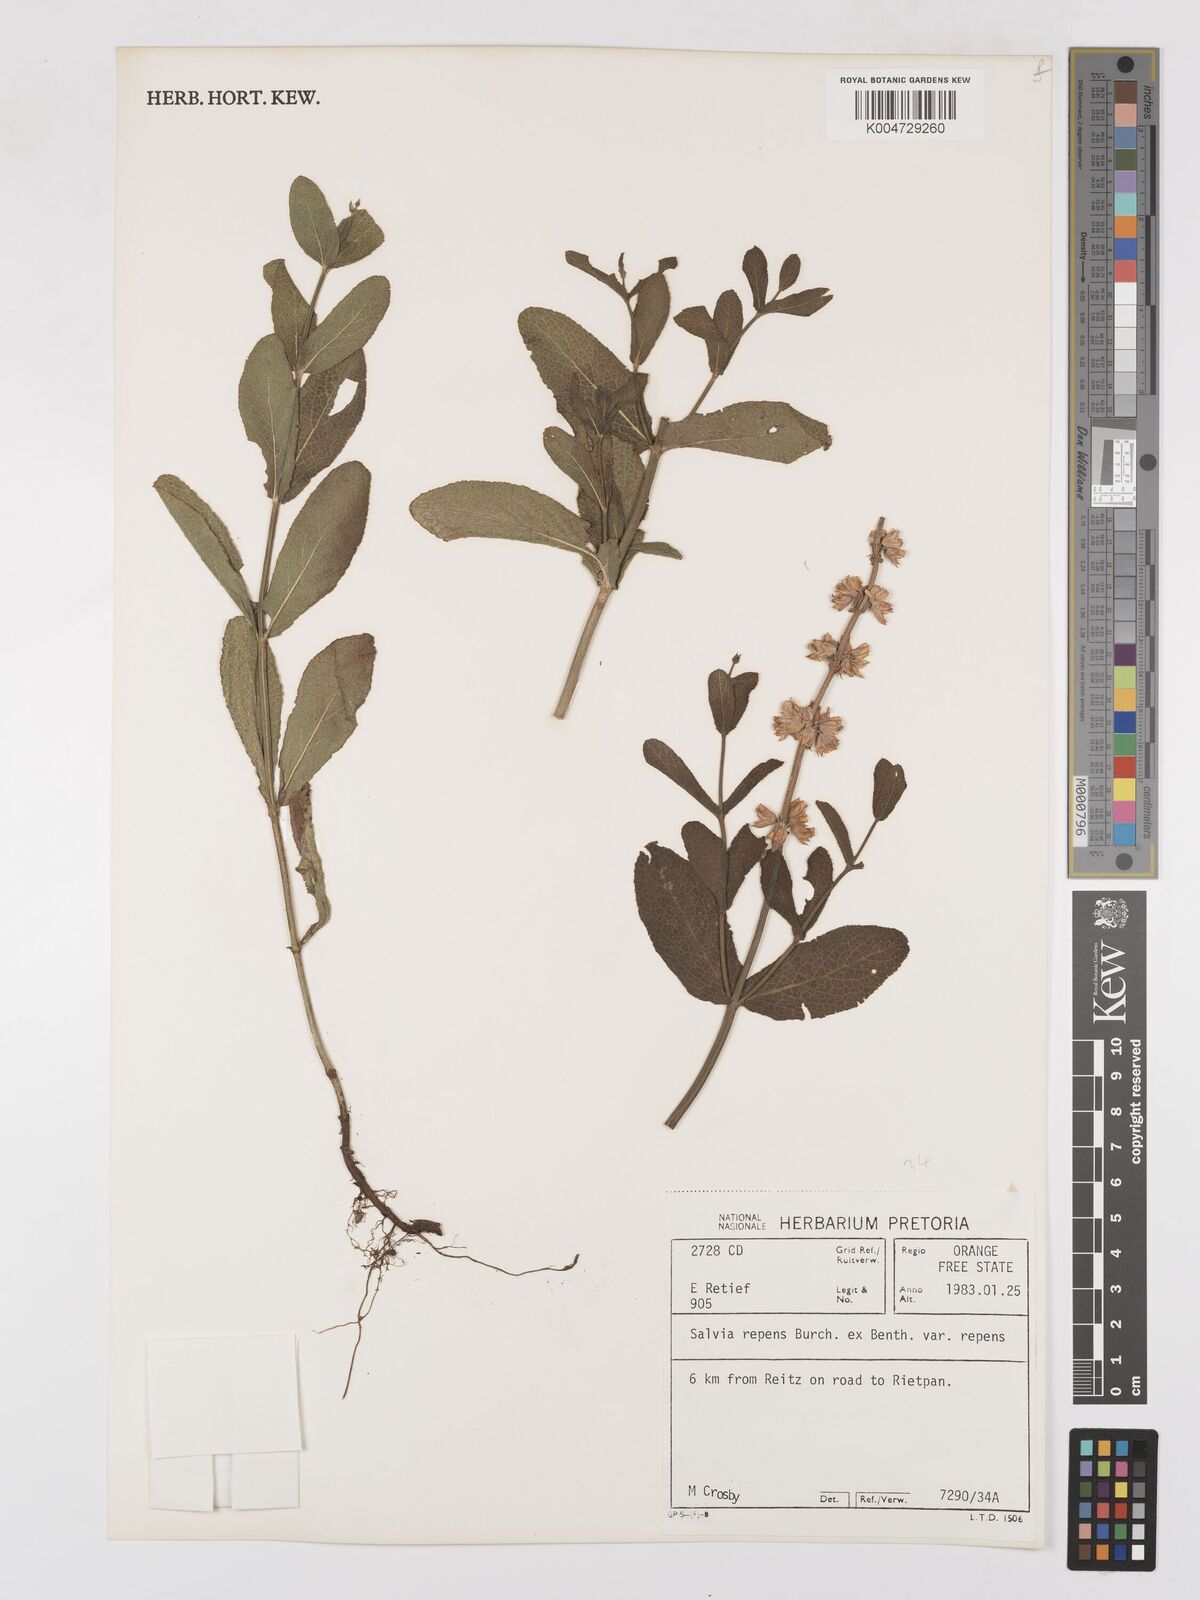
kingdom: Plantae
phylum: Tracheophyta
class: Magnoliopsida
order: Lamiales
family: Lamiaceae
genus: Salvia
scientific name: Salvia repens
